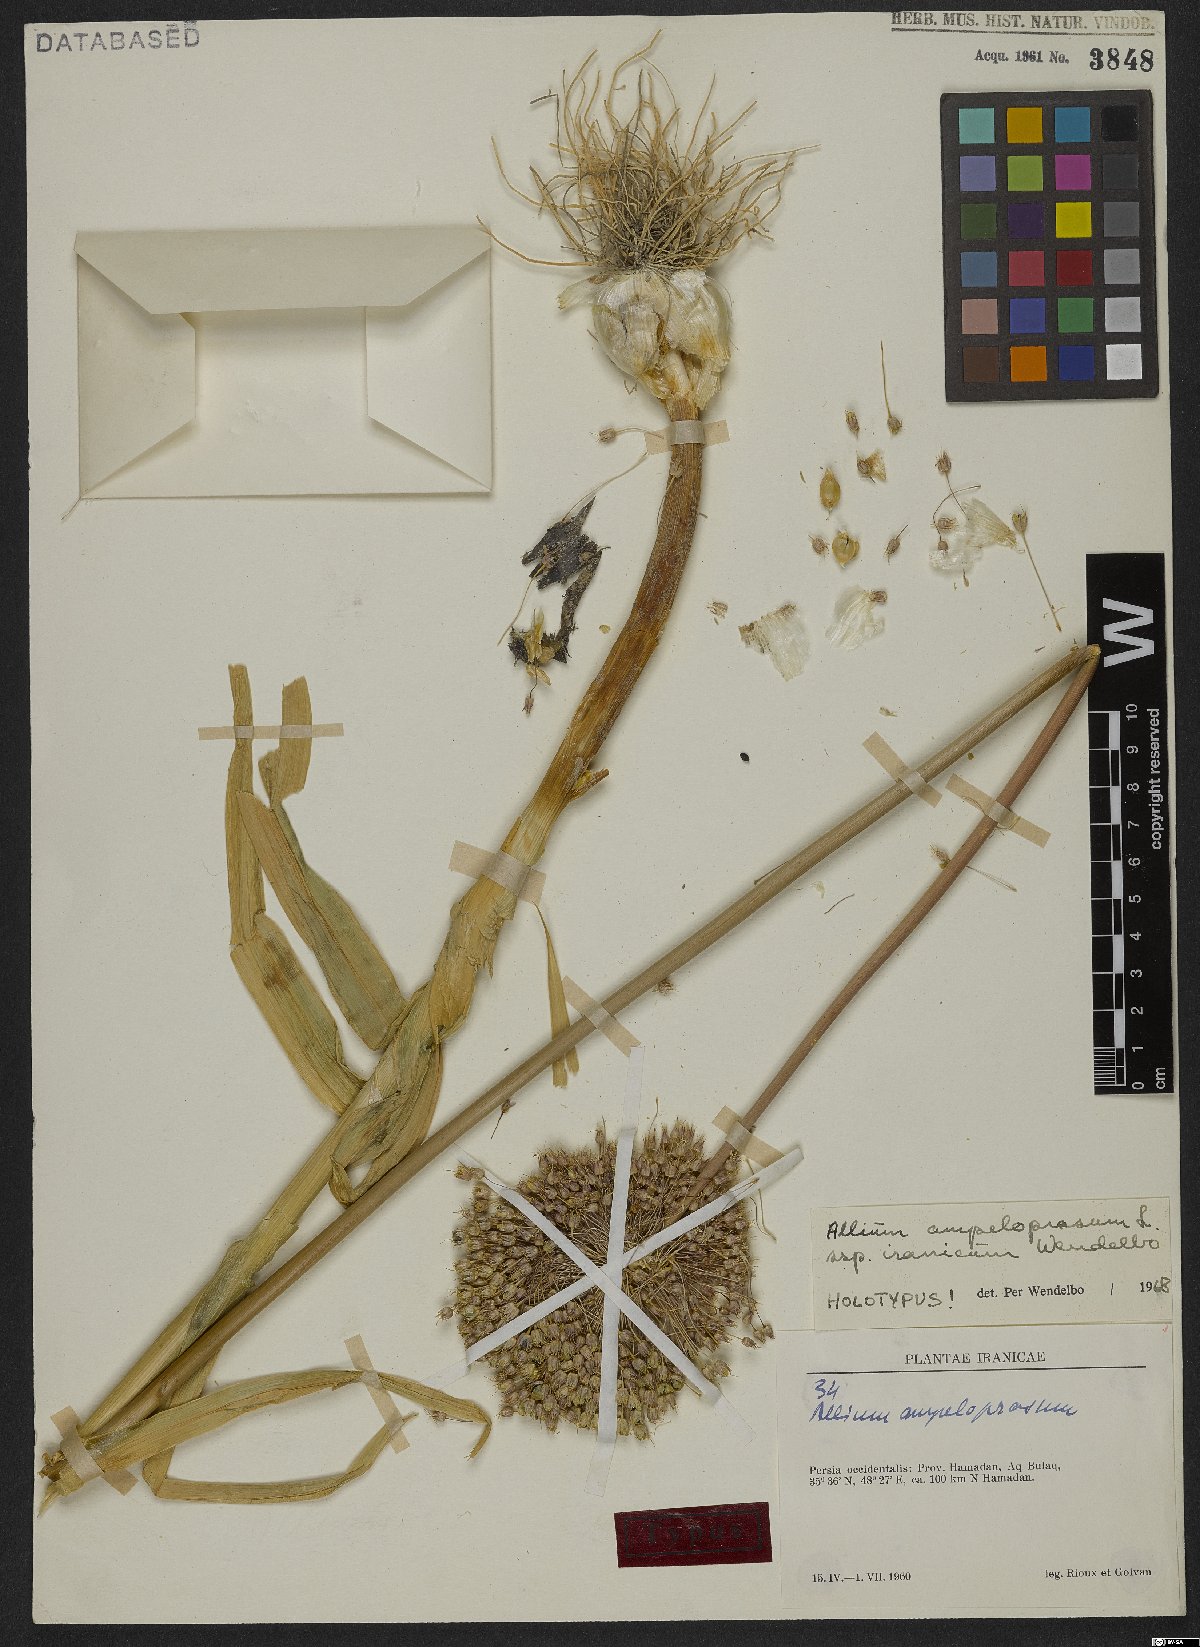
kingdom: Plantae
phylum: Tracheophyta
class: Liliopsida
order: Asparagales
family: Amaryllidaceae
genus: Allium
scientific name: Allium iranicum
